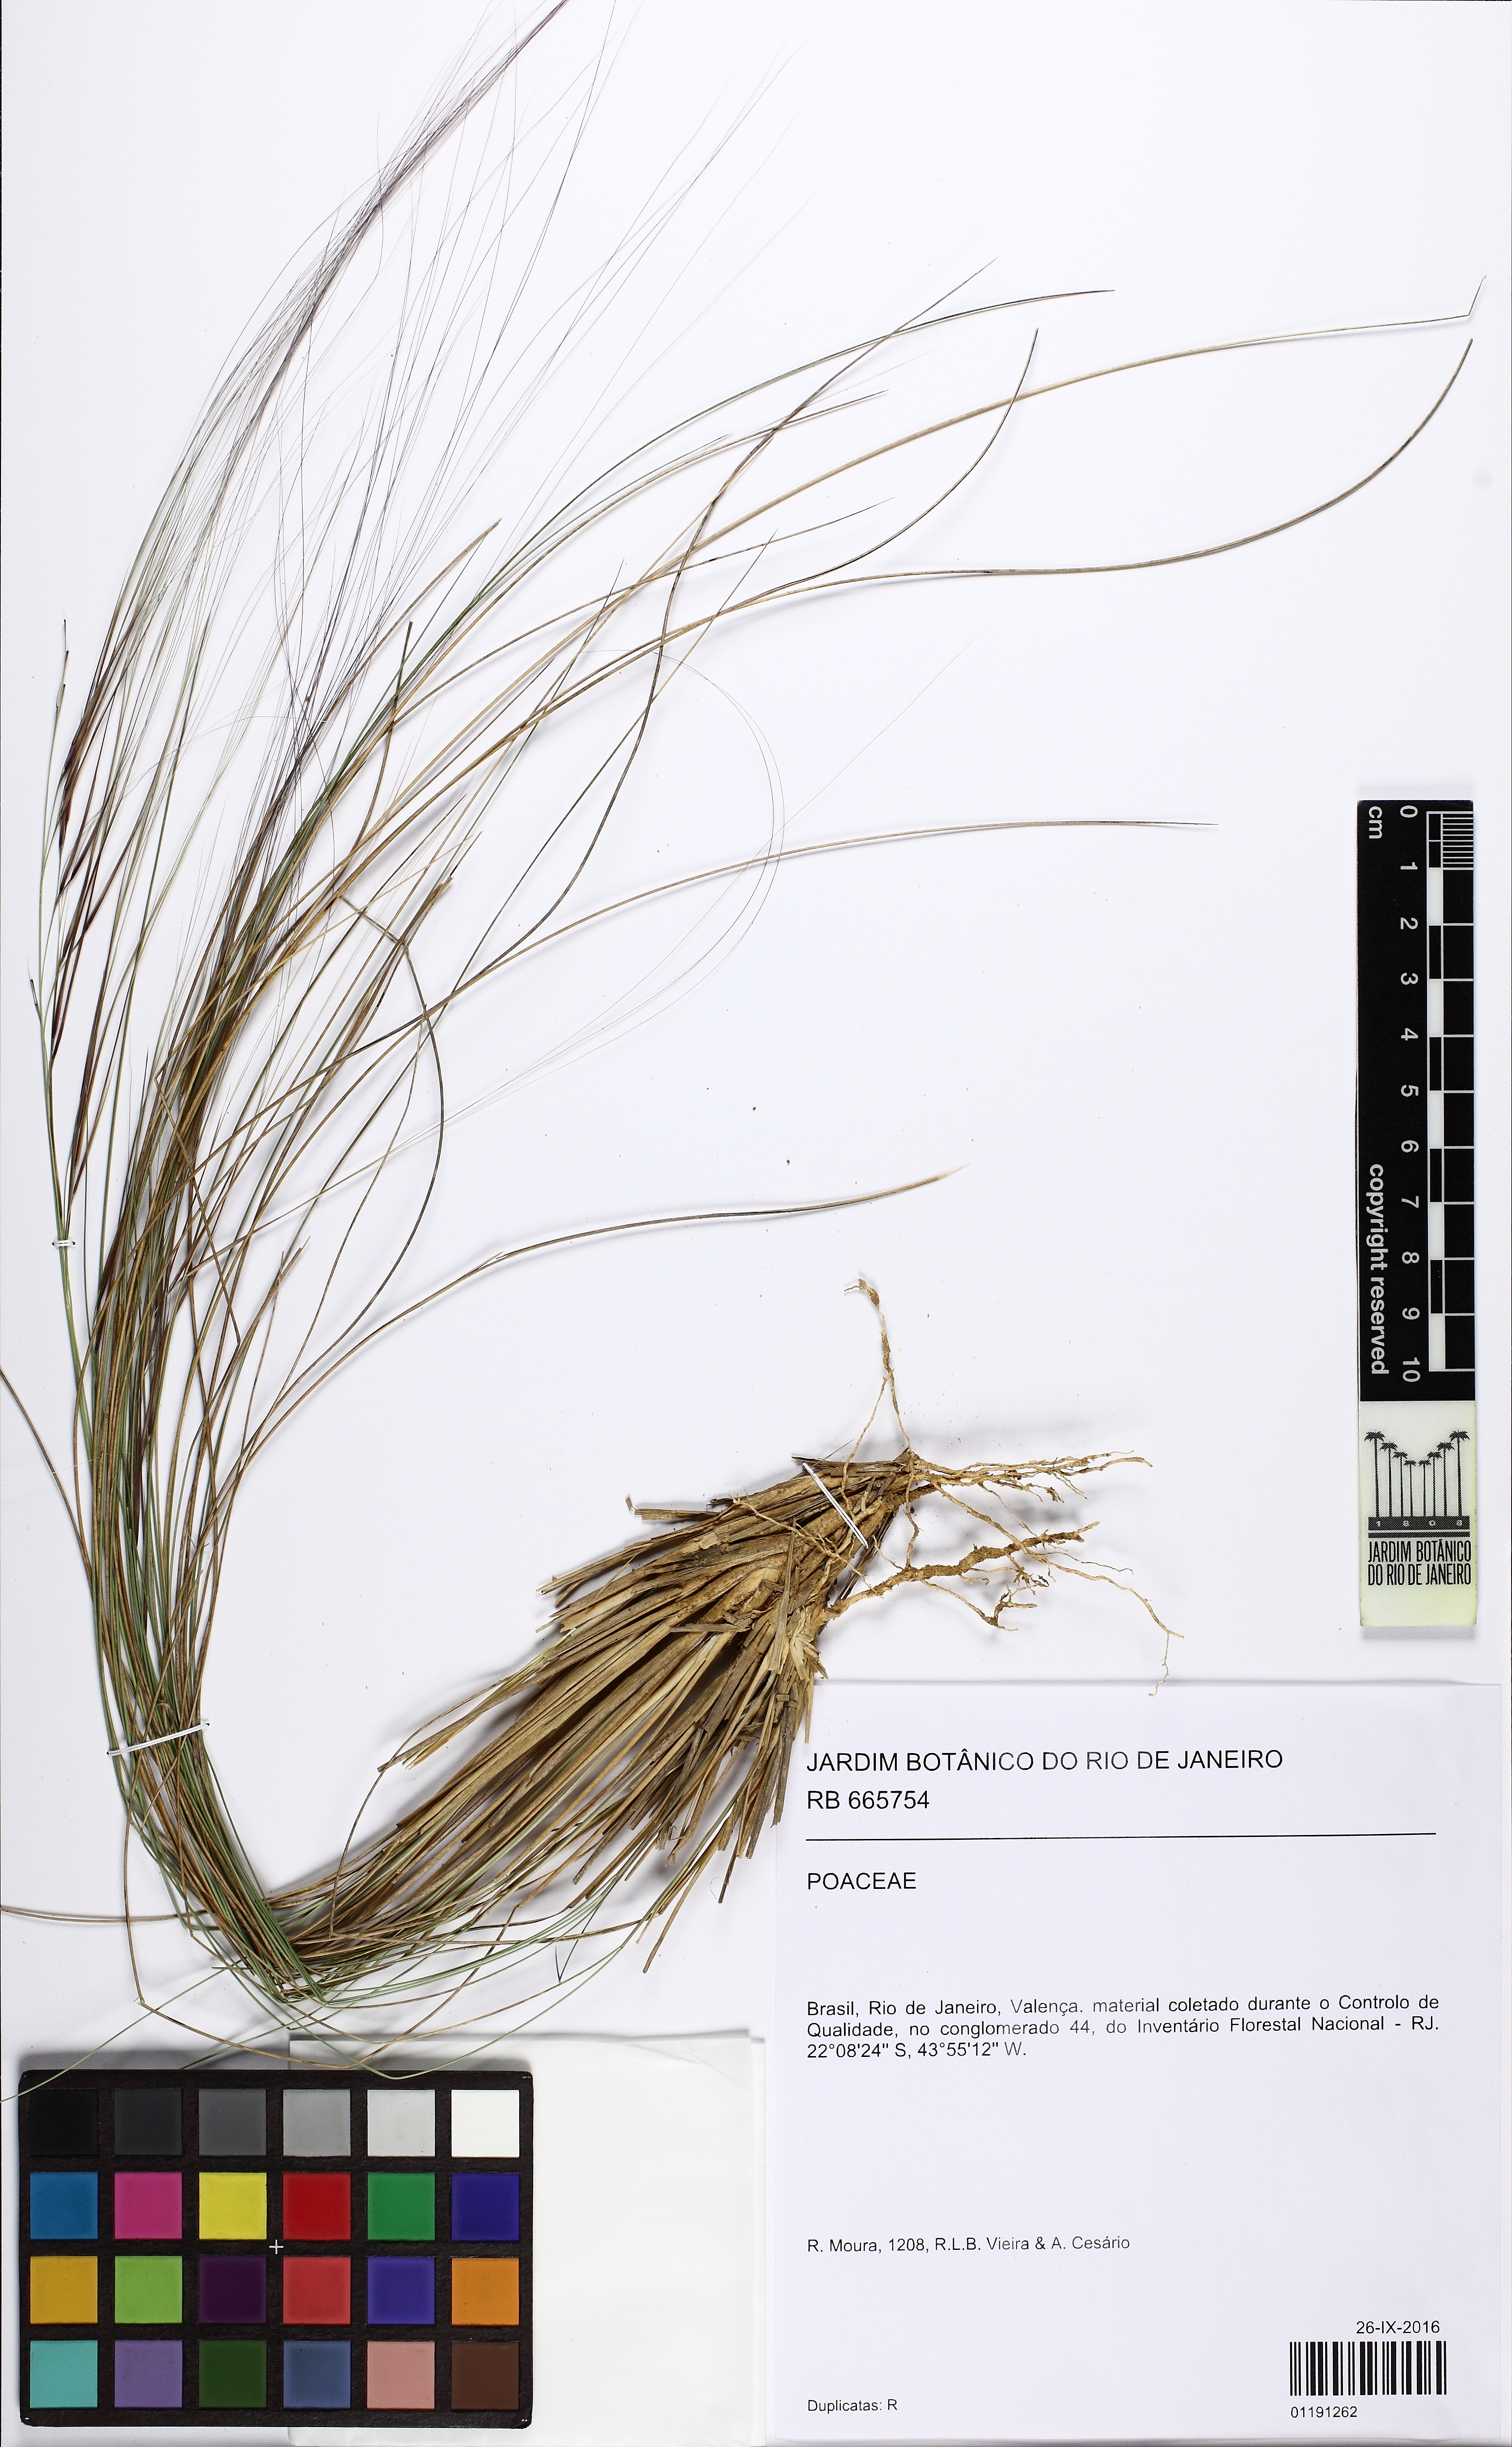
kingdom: Plantae
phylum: Tracheophyta
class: Liliopsida
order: Poales
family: Poaceae
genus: Aristida
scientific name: Aristida
